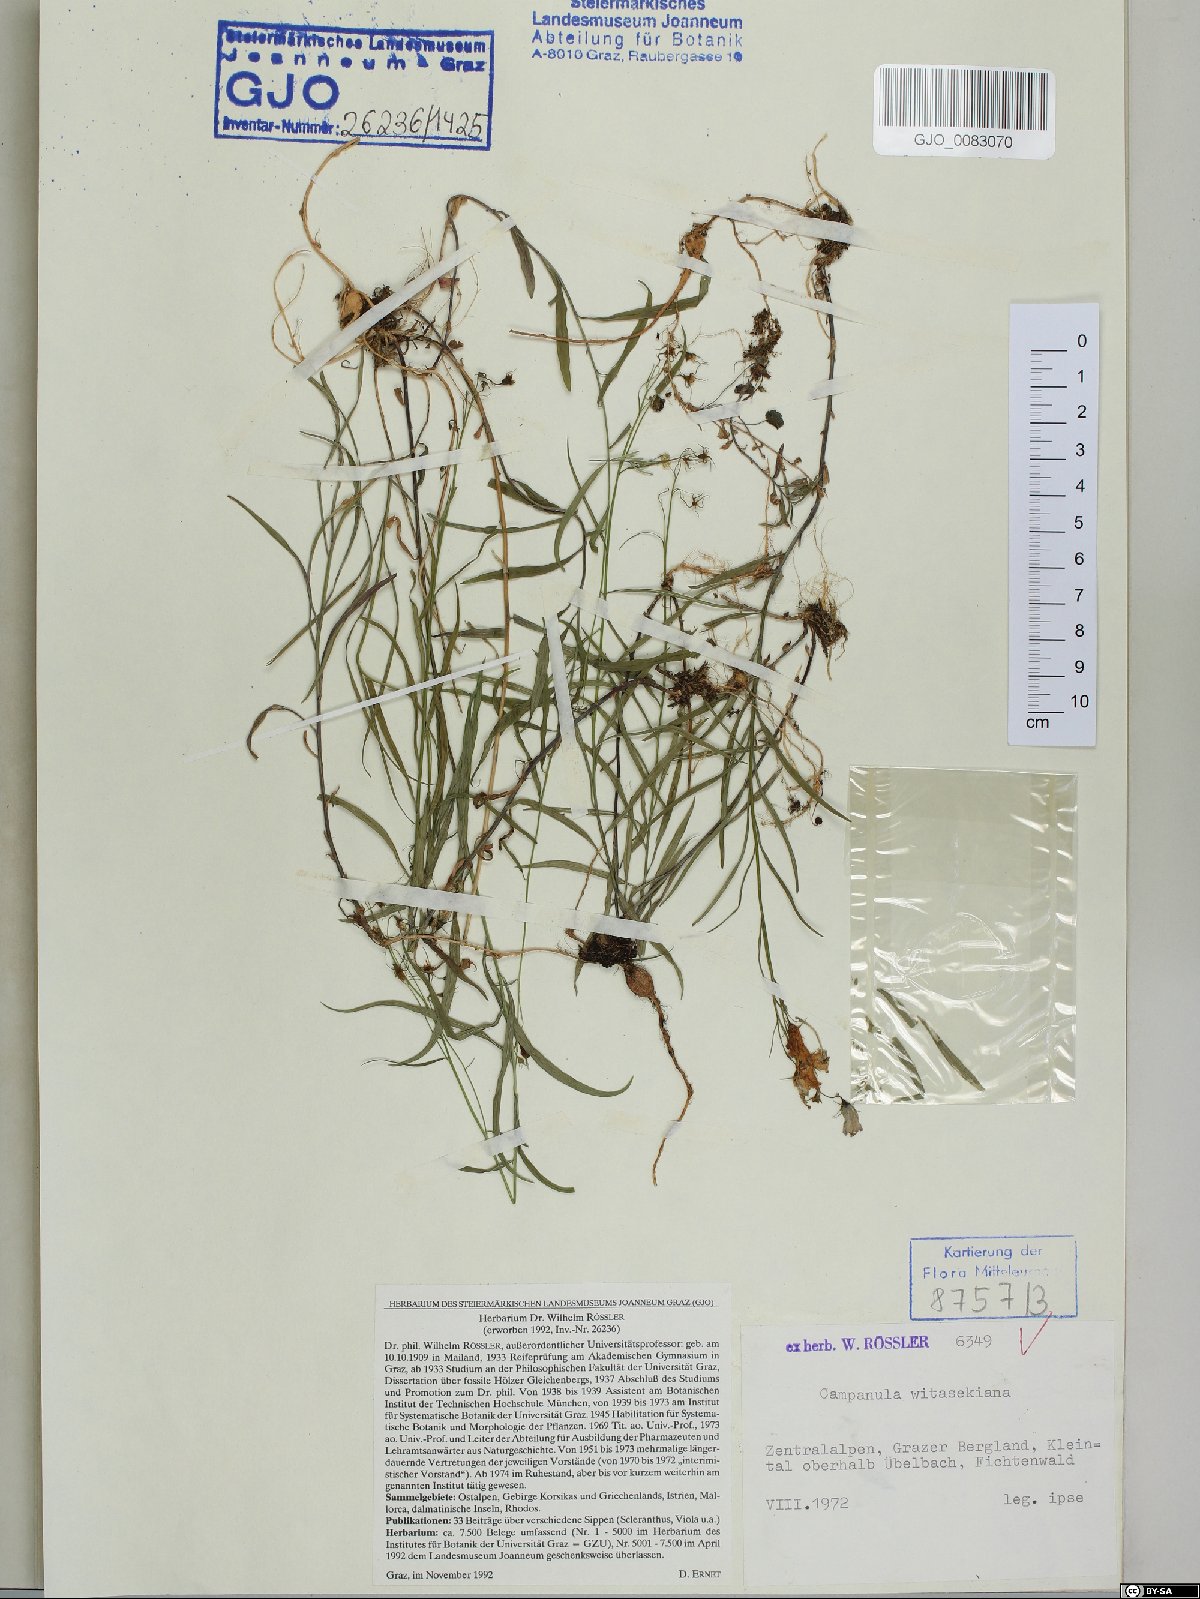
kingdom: Plantae
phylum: Tracheophyta
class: Magnoliopsida
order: Asterales
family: Campanulaceae
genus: Campanula
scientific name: Campanula witasekiana
